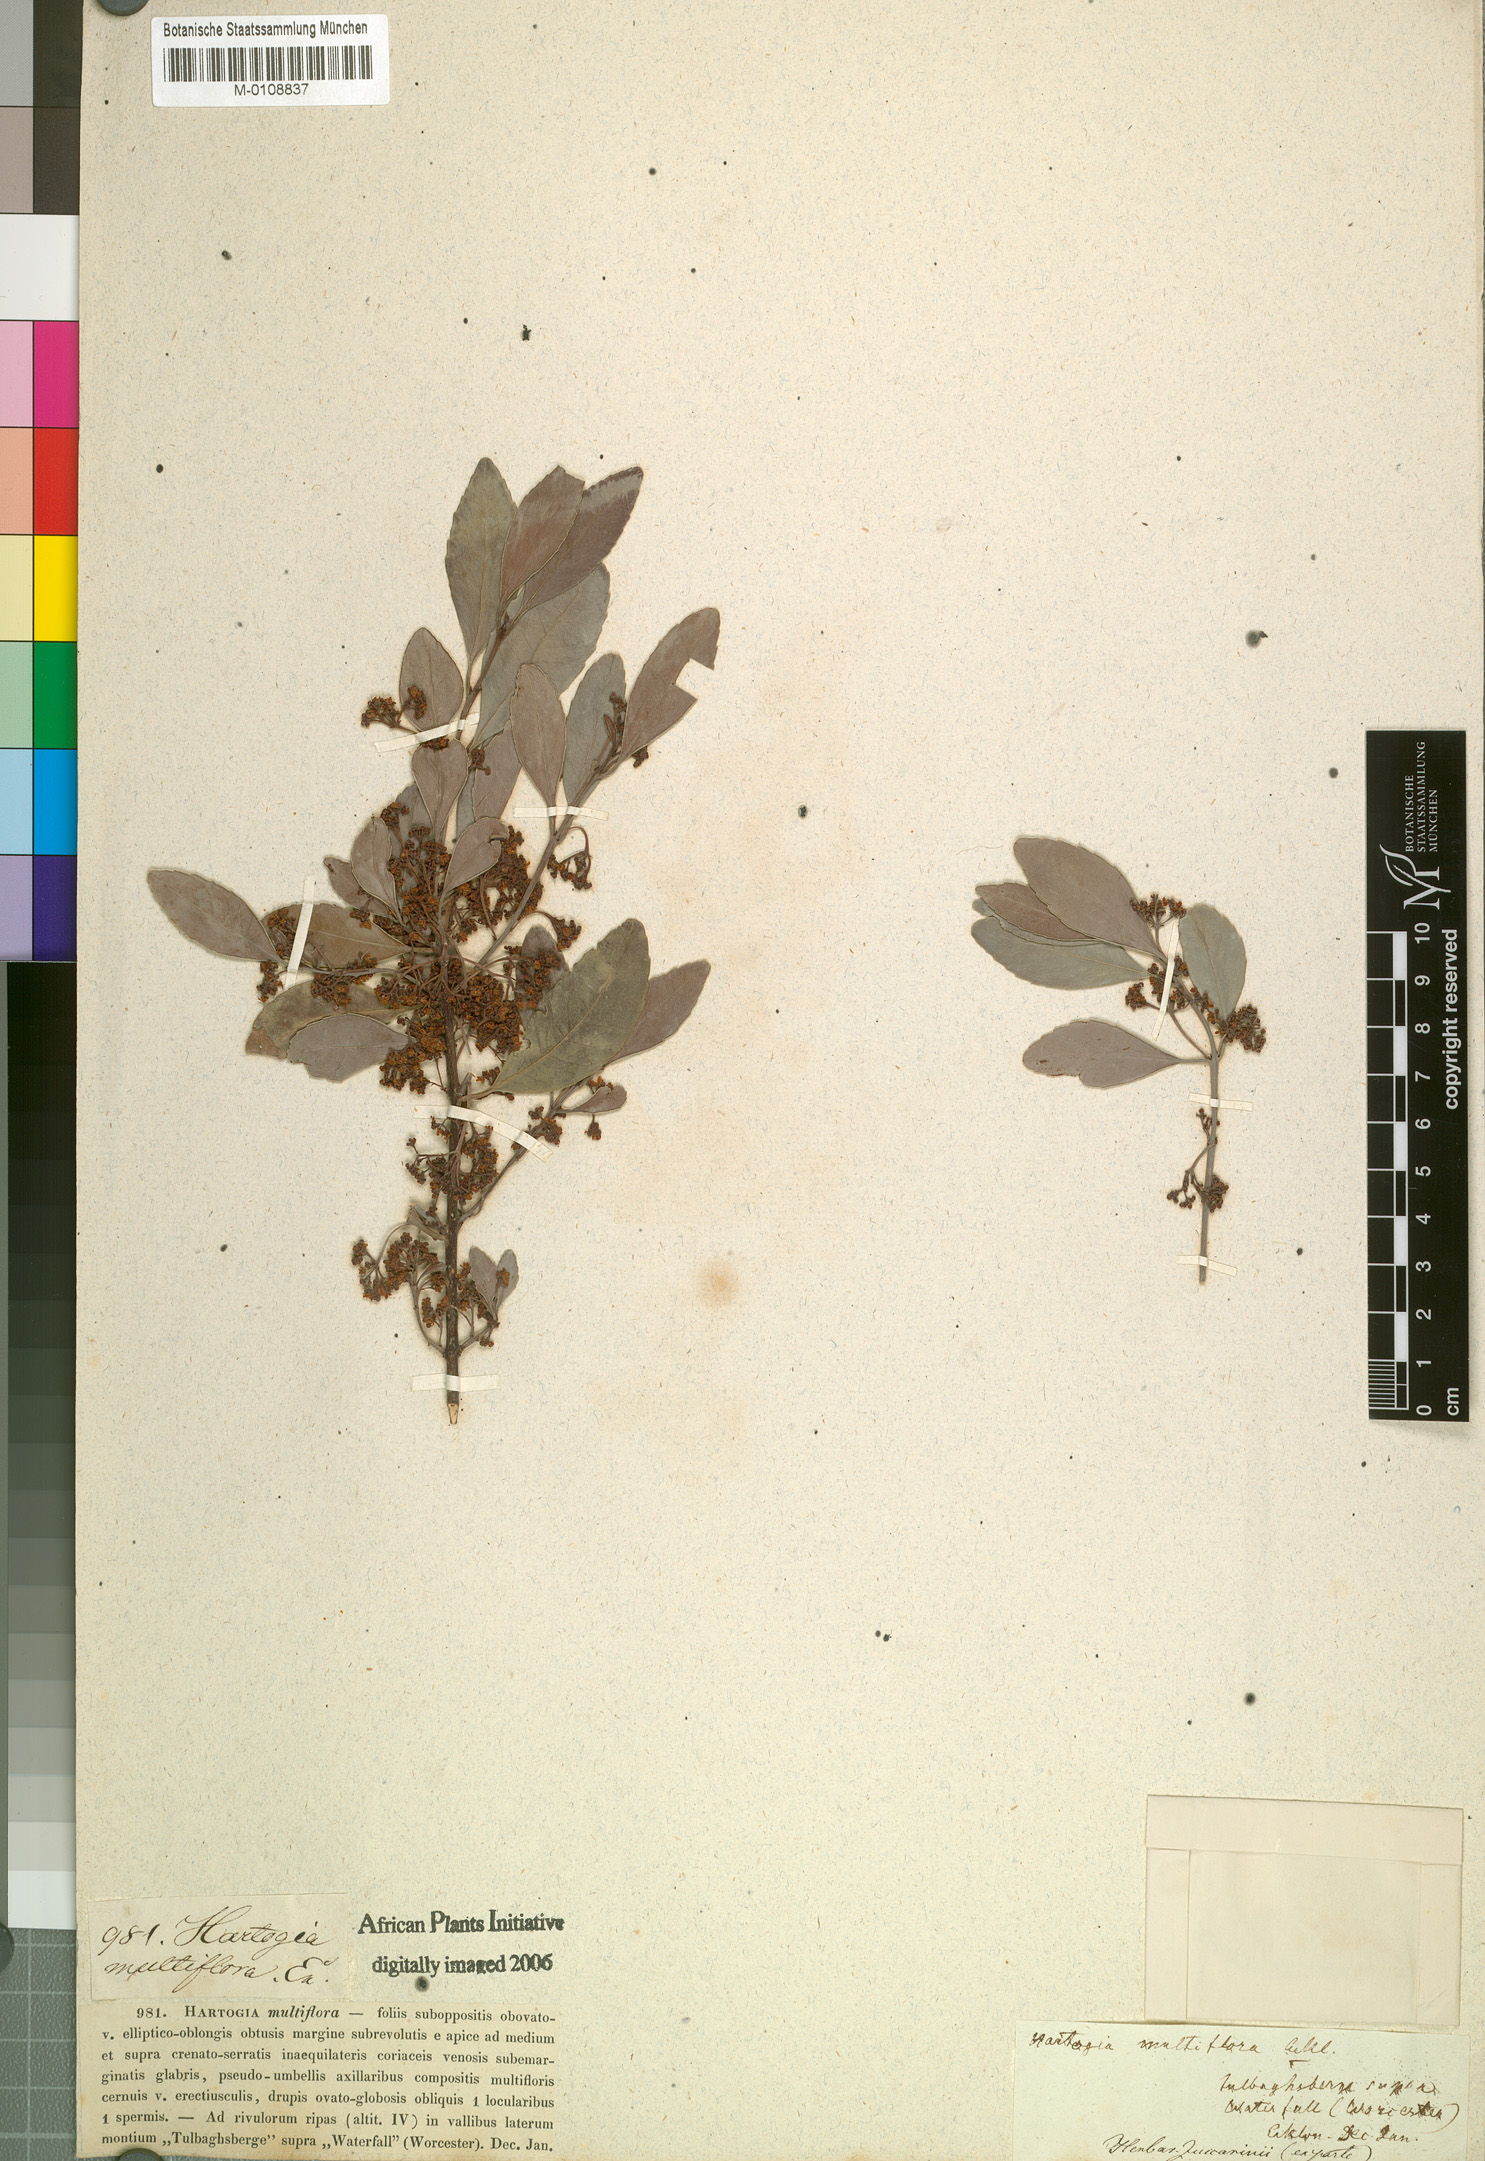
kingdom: Plantae
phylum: Tracheophyta
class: Magnoliopsida
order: Celastrales
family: Celastraceae
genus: Elaeodendron
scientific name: Elaeodendron schinoides
